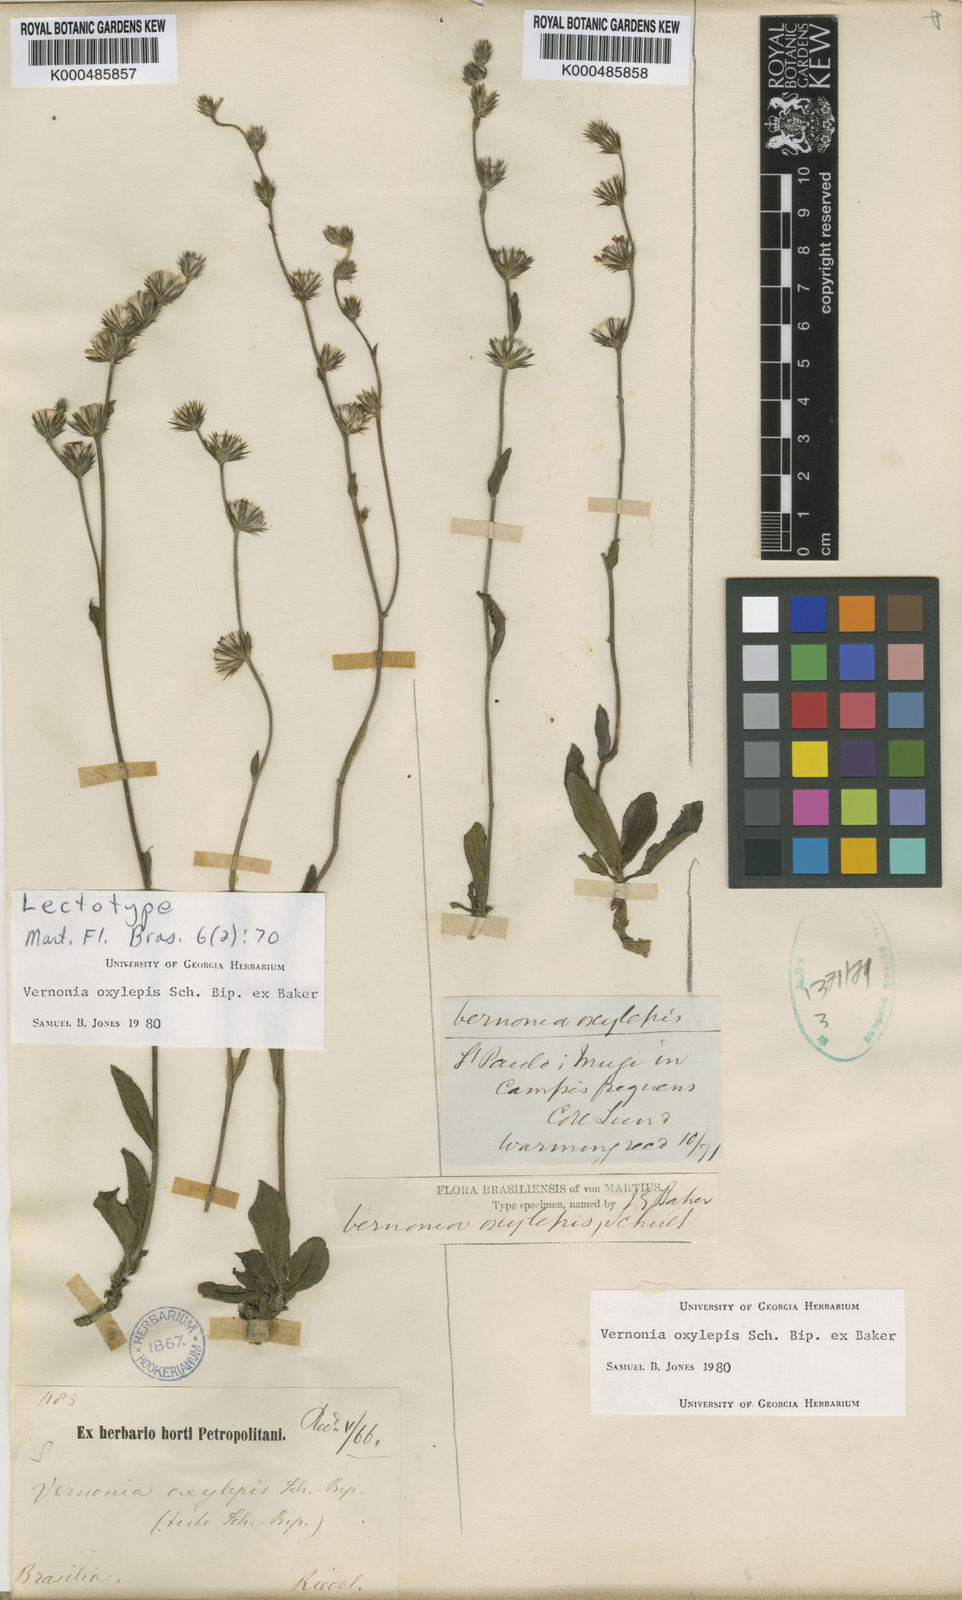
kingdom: Plantae
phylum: Tracheophyta
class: Magnoliopsida
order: Asterales
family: Asteraceae
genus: Lepidaploa
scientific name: Lepidaploa psilostachya
